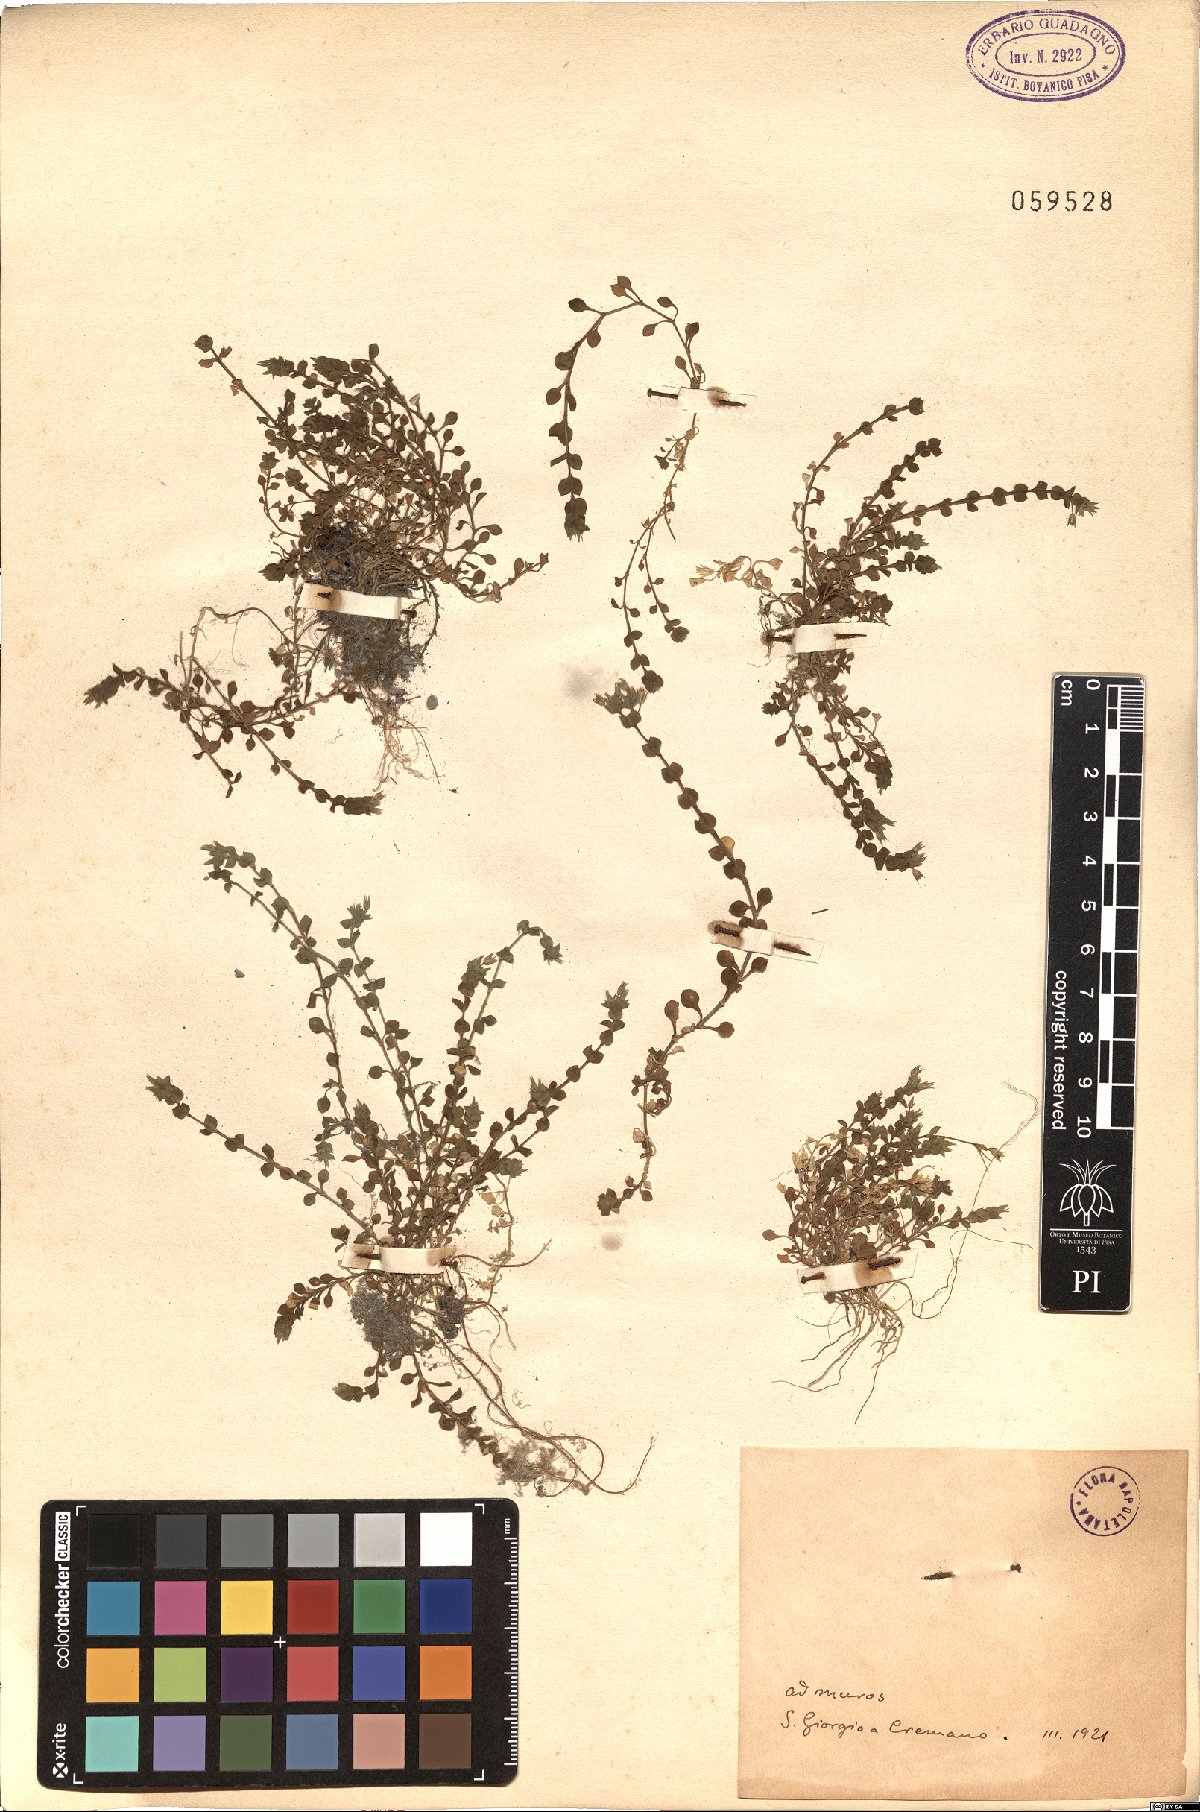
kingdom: Plantae
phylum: Tracheophyta
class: Magnoliopsida
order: Caryophyllales
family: Caryophyllaceae
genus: Arenaria
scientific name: Arenaria leptoclados
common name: Thyme-leaved sandwort
